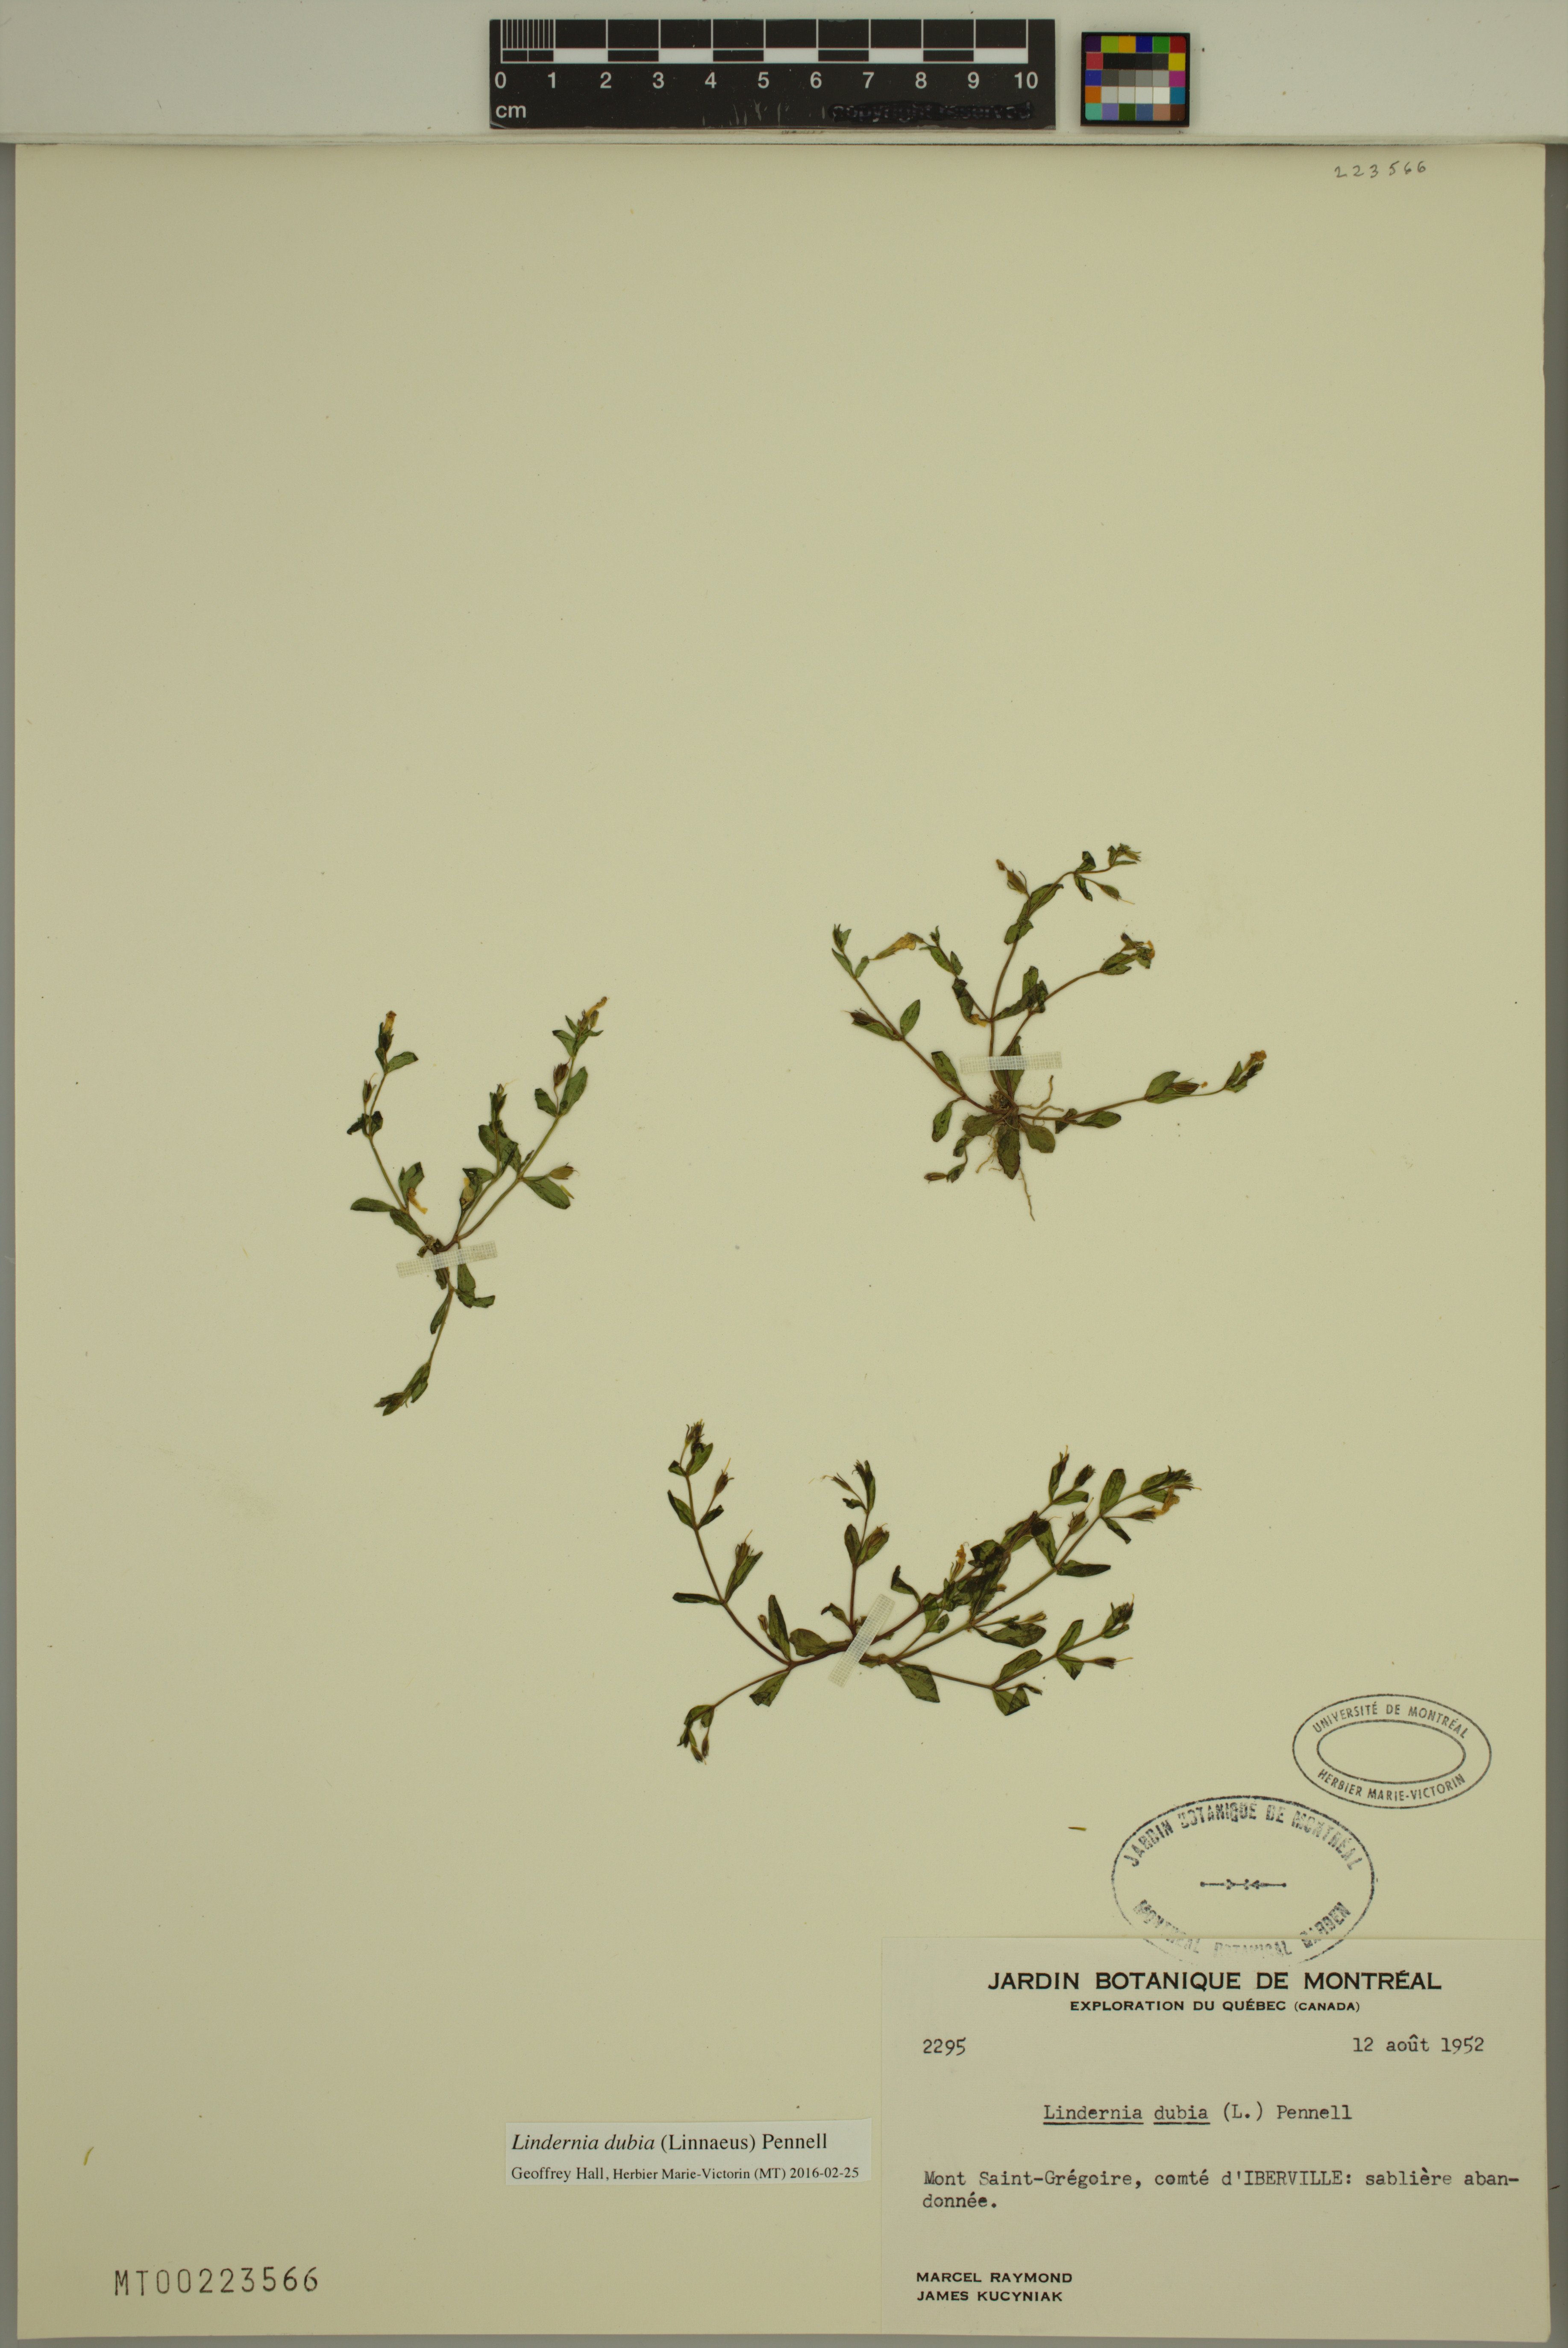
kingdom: Plantae
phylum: Tracheophyta
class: Magnoliopsida
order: Lamiales
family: Linderniaceae
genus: Lindernia
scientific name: Lindernia dubia
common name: Annual false pimpernel
